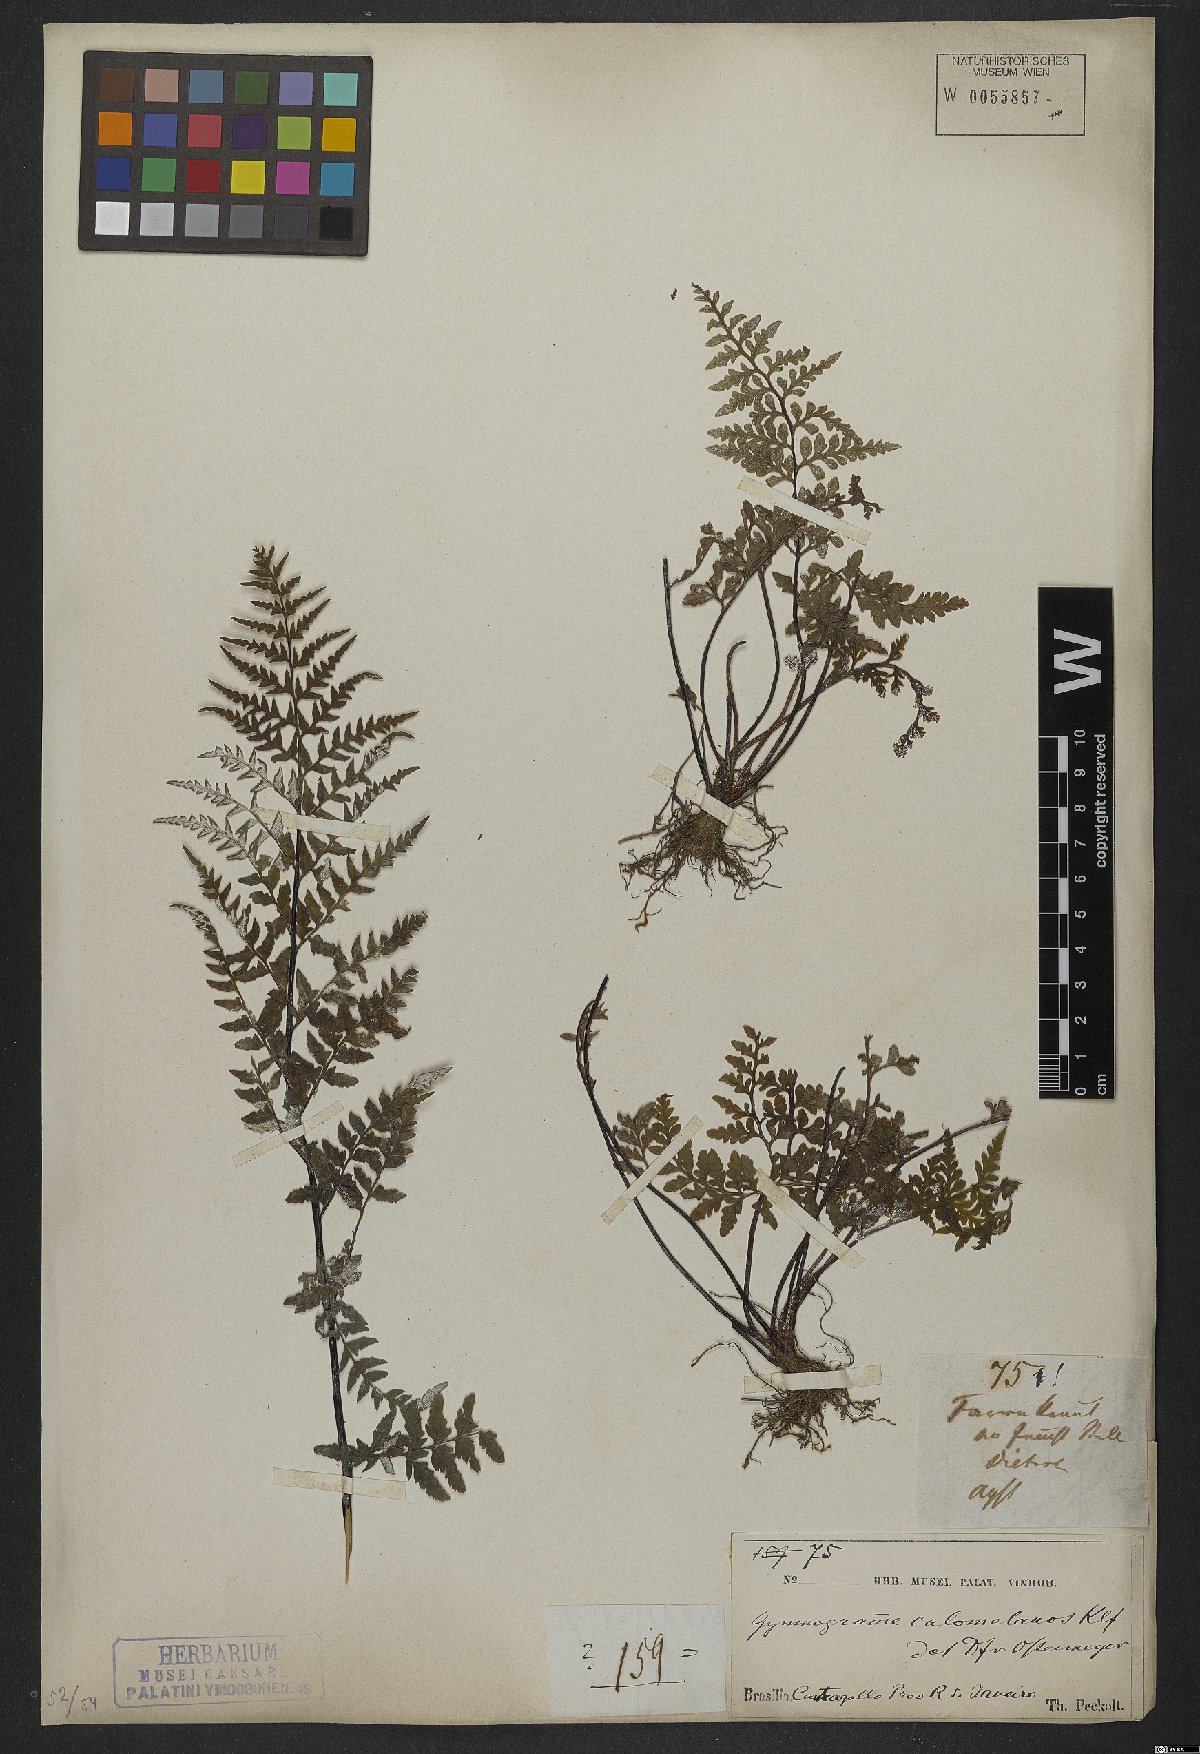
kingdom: Plantae
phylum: Tracheophyta
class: Polypodiopsida
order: Polypodiales
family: Pteridaceae
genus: Pityrogramma
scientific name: Pityrogramma calomelanos
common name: Dixie silverback fern
